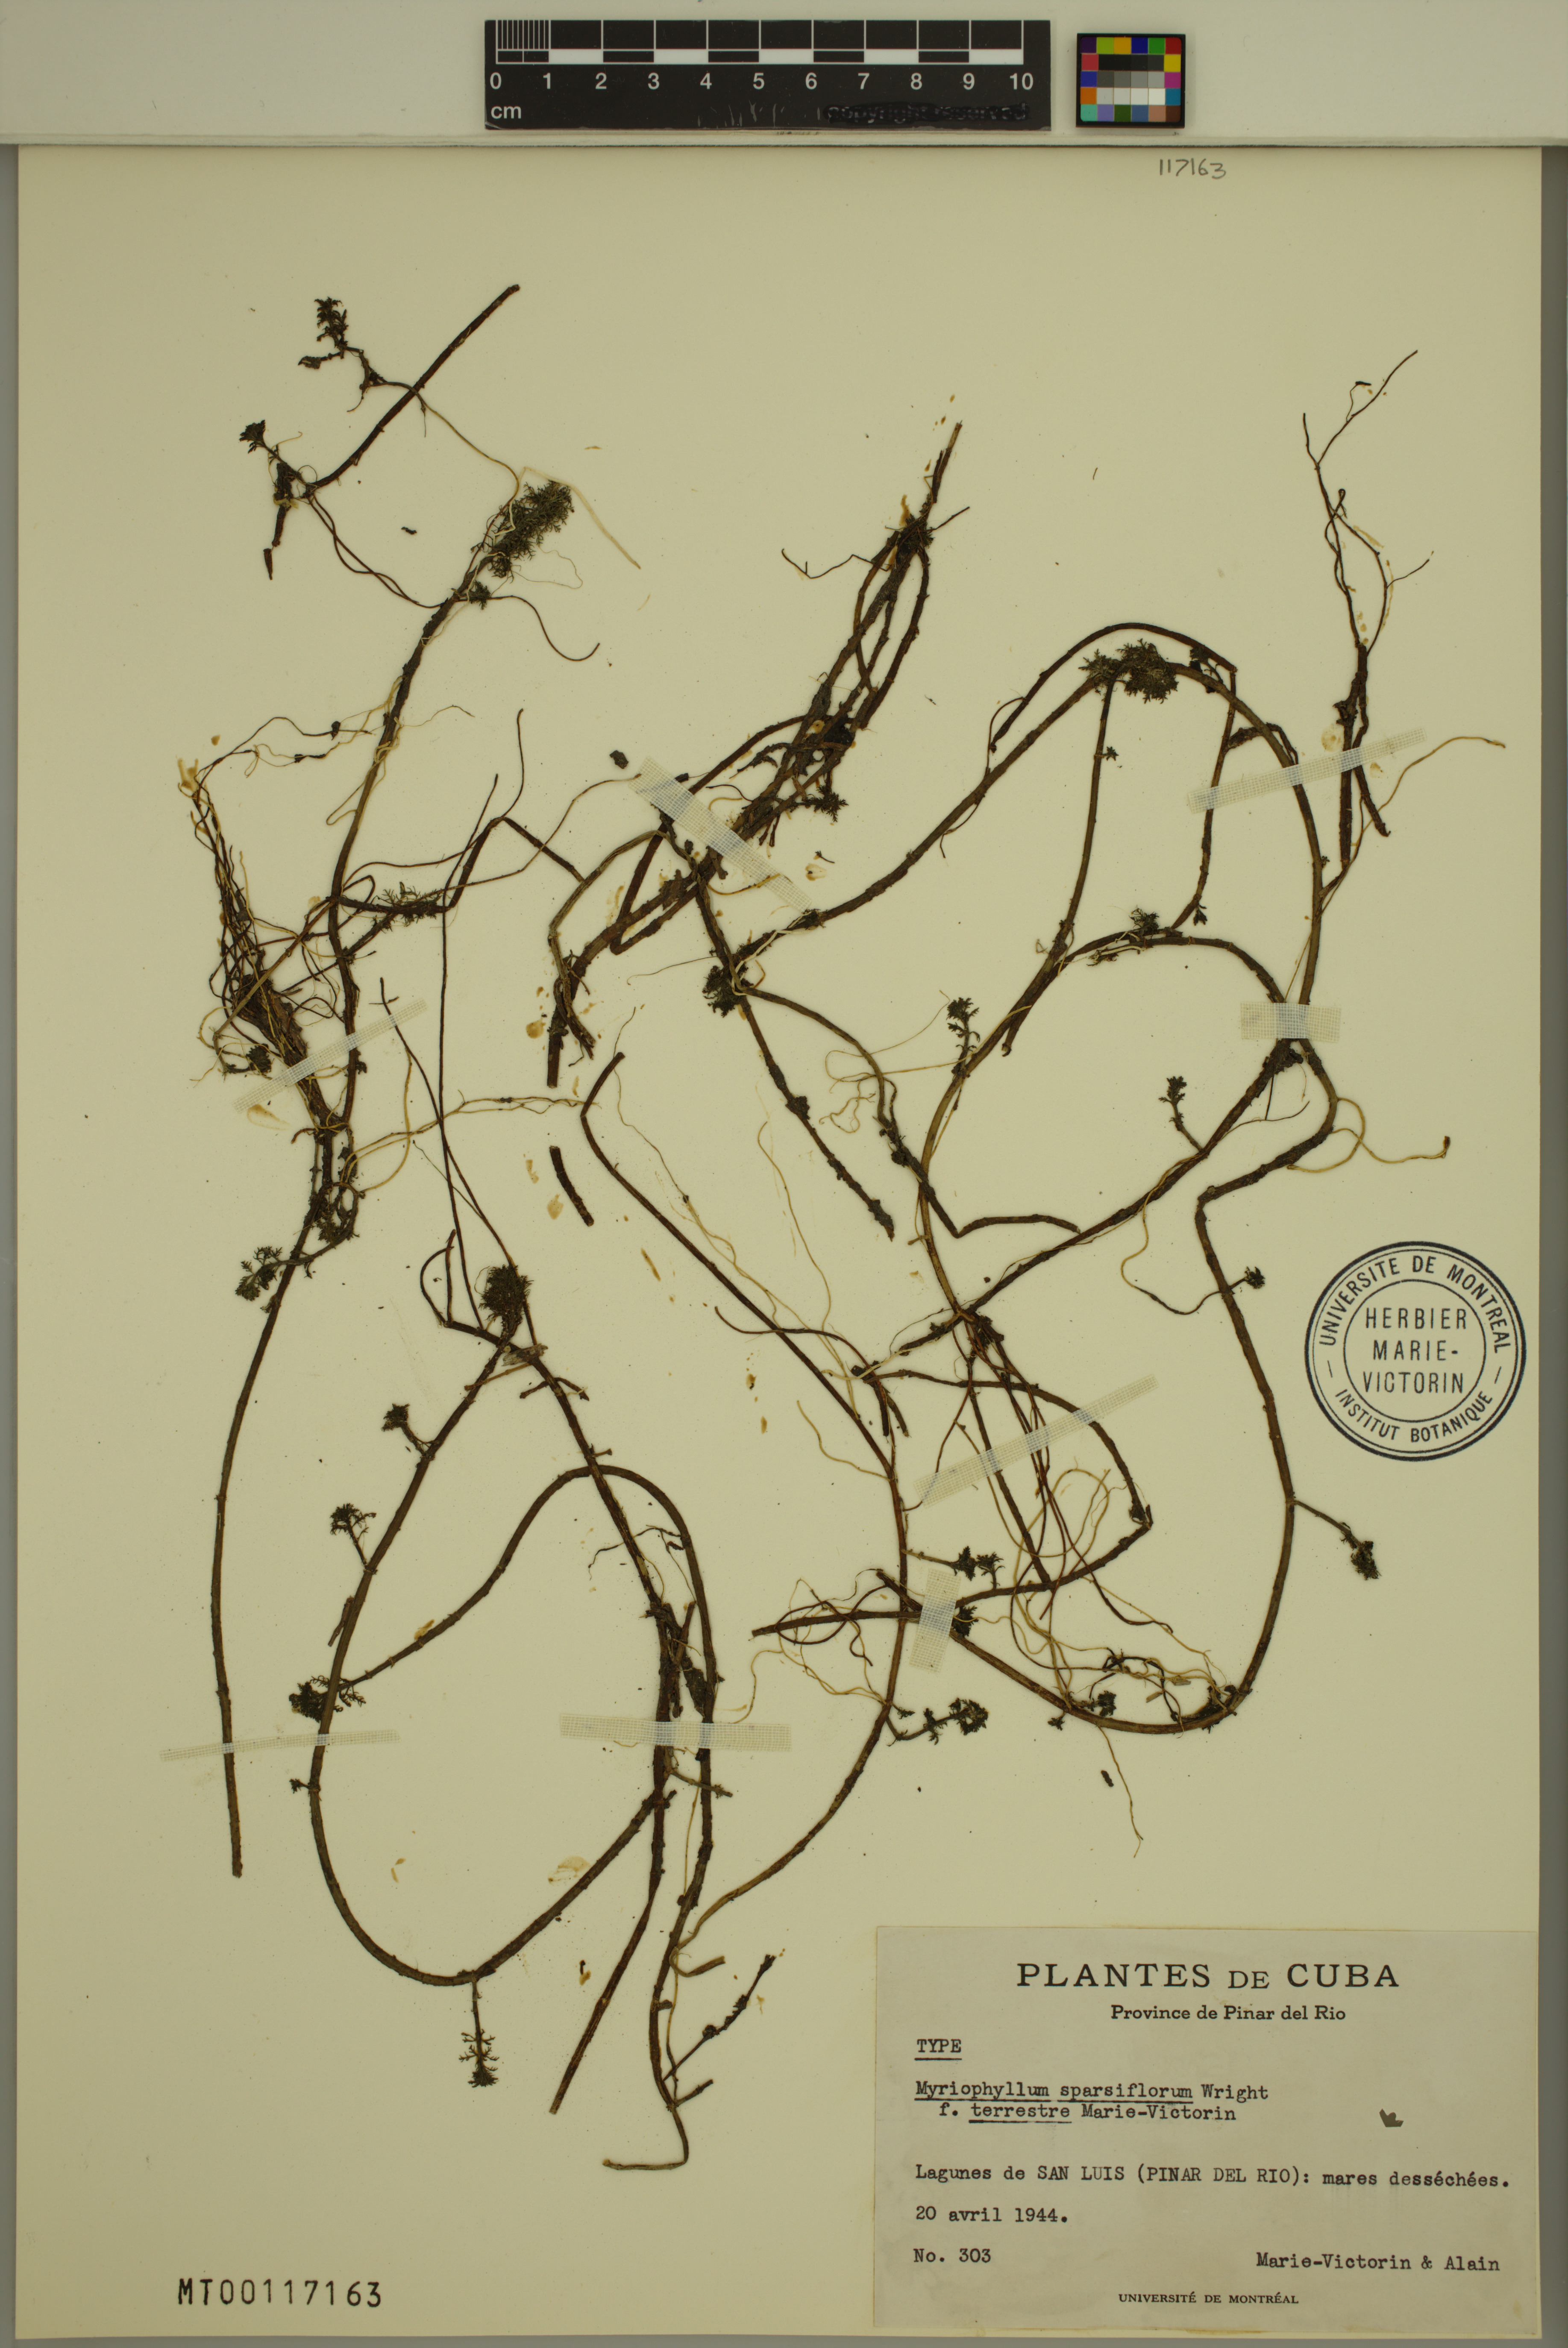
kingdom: Plantae
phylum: Tracheophyta
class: Magnoliopsida
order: Saxifragales
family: Haloragaceae
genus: Myriophyllum
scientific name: Myriophyllum sparsiflorum
